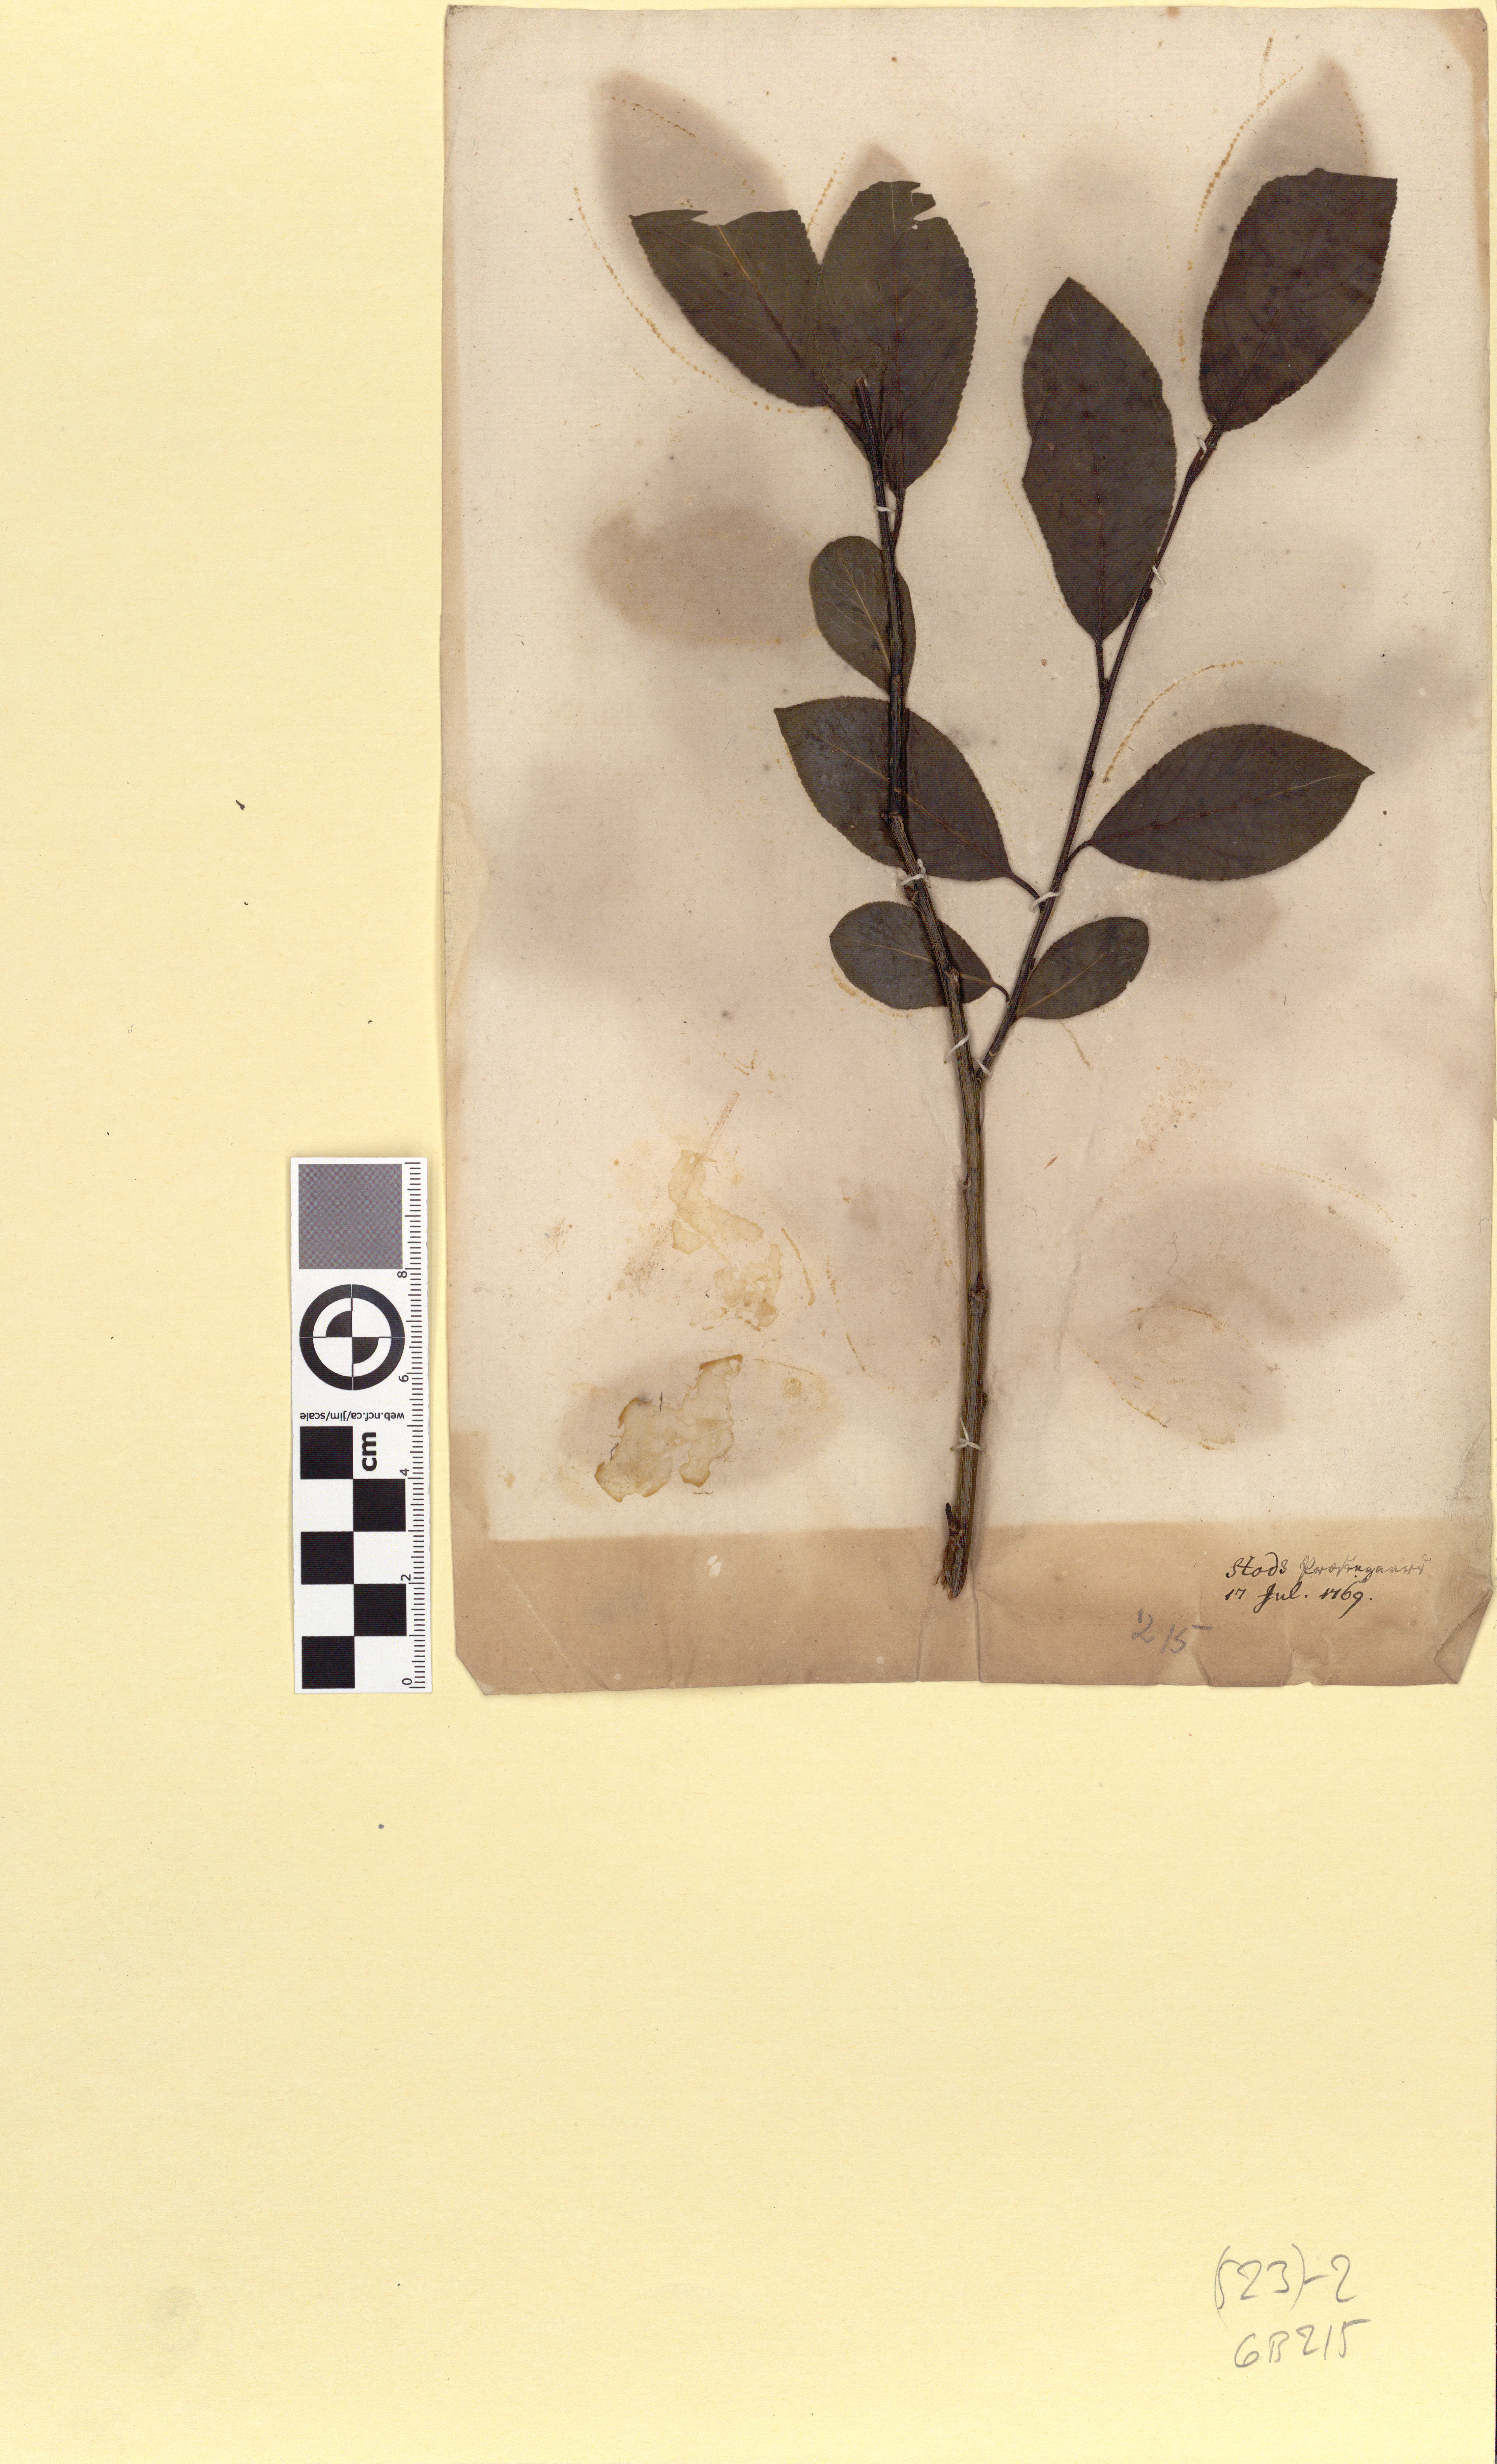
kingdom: Plantae
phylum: Tracheophyta
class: Magnoliopsida
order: Malpighiales
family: Salicaceae
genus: Salix
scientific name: Salix pentandra
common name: Bay willow
